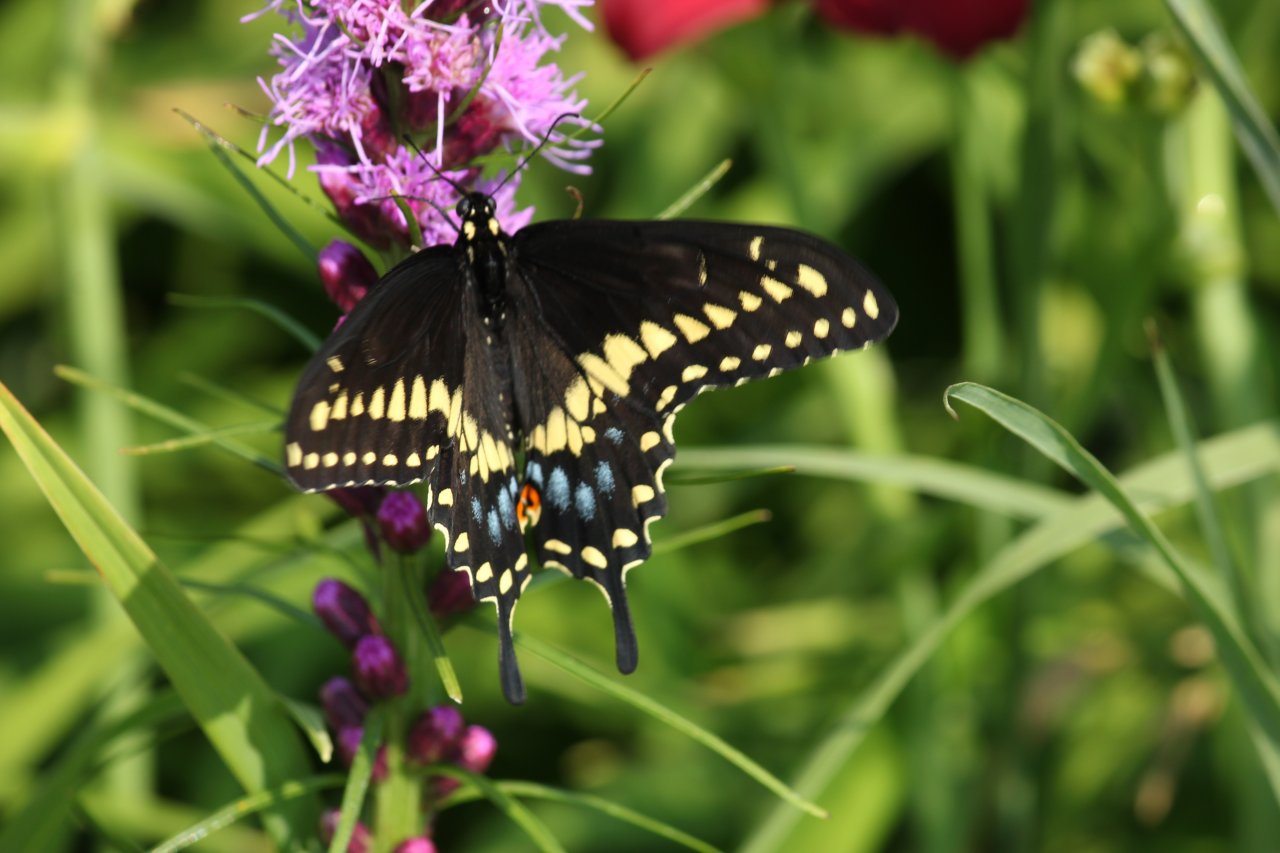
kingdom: Animalia
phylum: Arthropoda
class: Insecta
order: Lepidoptera
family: Papilionidae
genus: Papilio
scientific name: Papilio polyxenes
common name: Black Swallowtail
